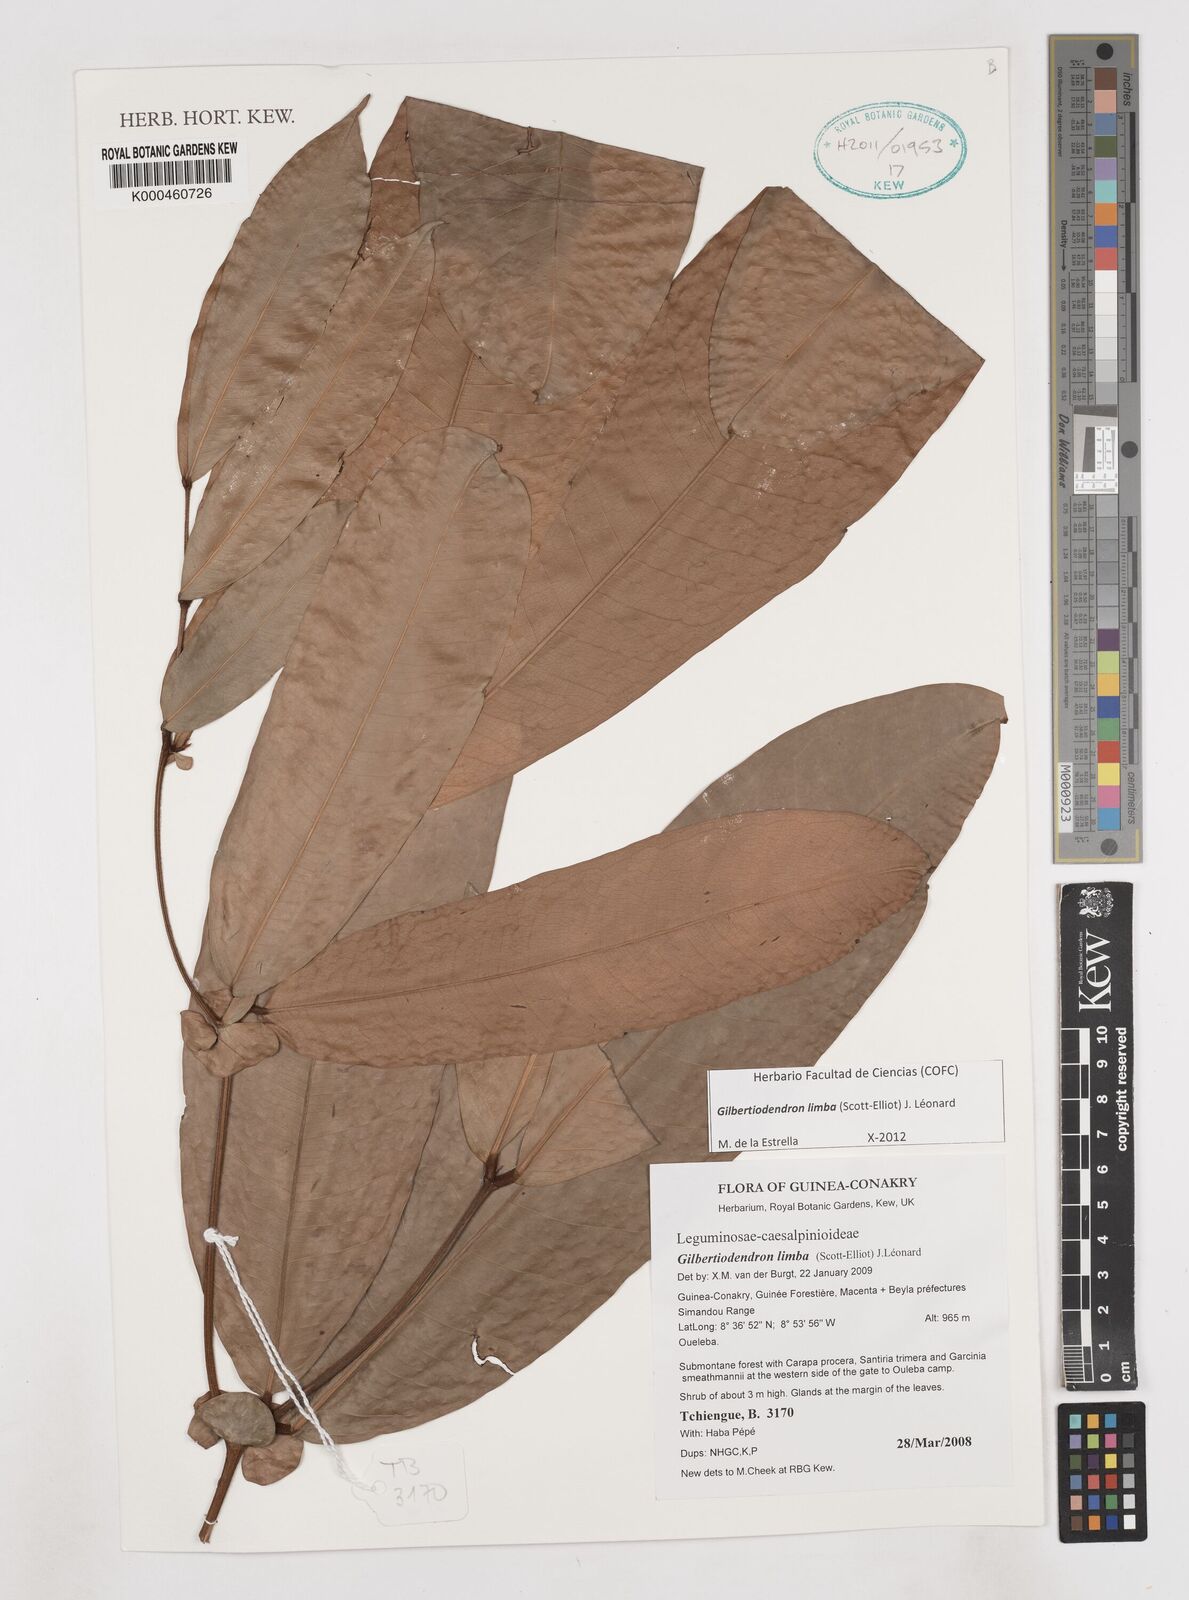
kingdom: Plantae
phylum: Tracheophyta
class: Magnoliopsida
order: Fabales
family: Fabaceae
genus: Gilbertiodendron
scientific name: Gilbertiodendron limba
